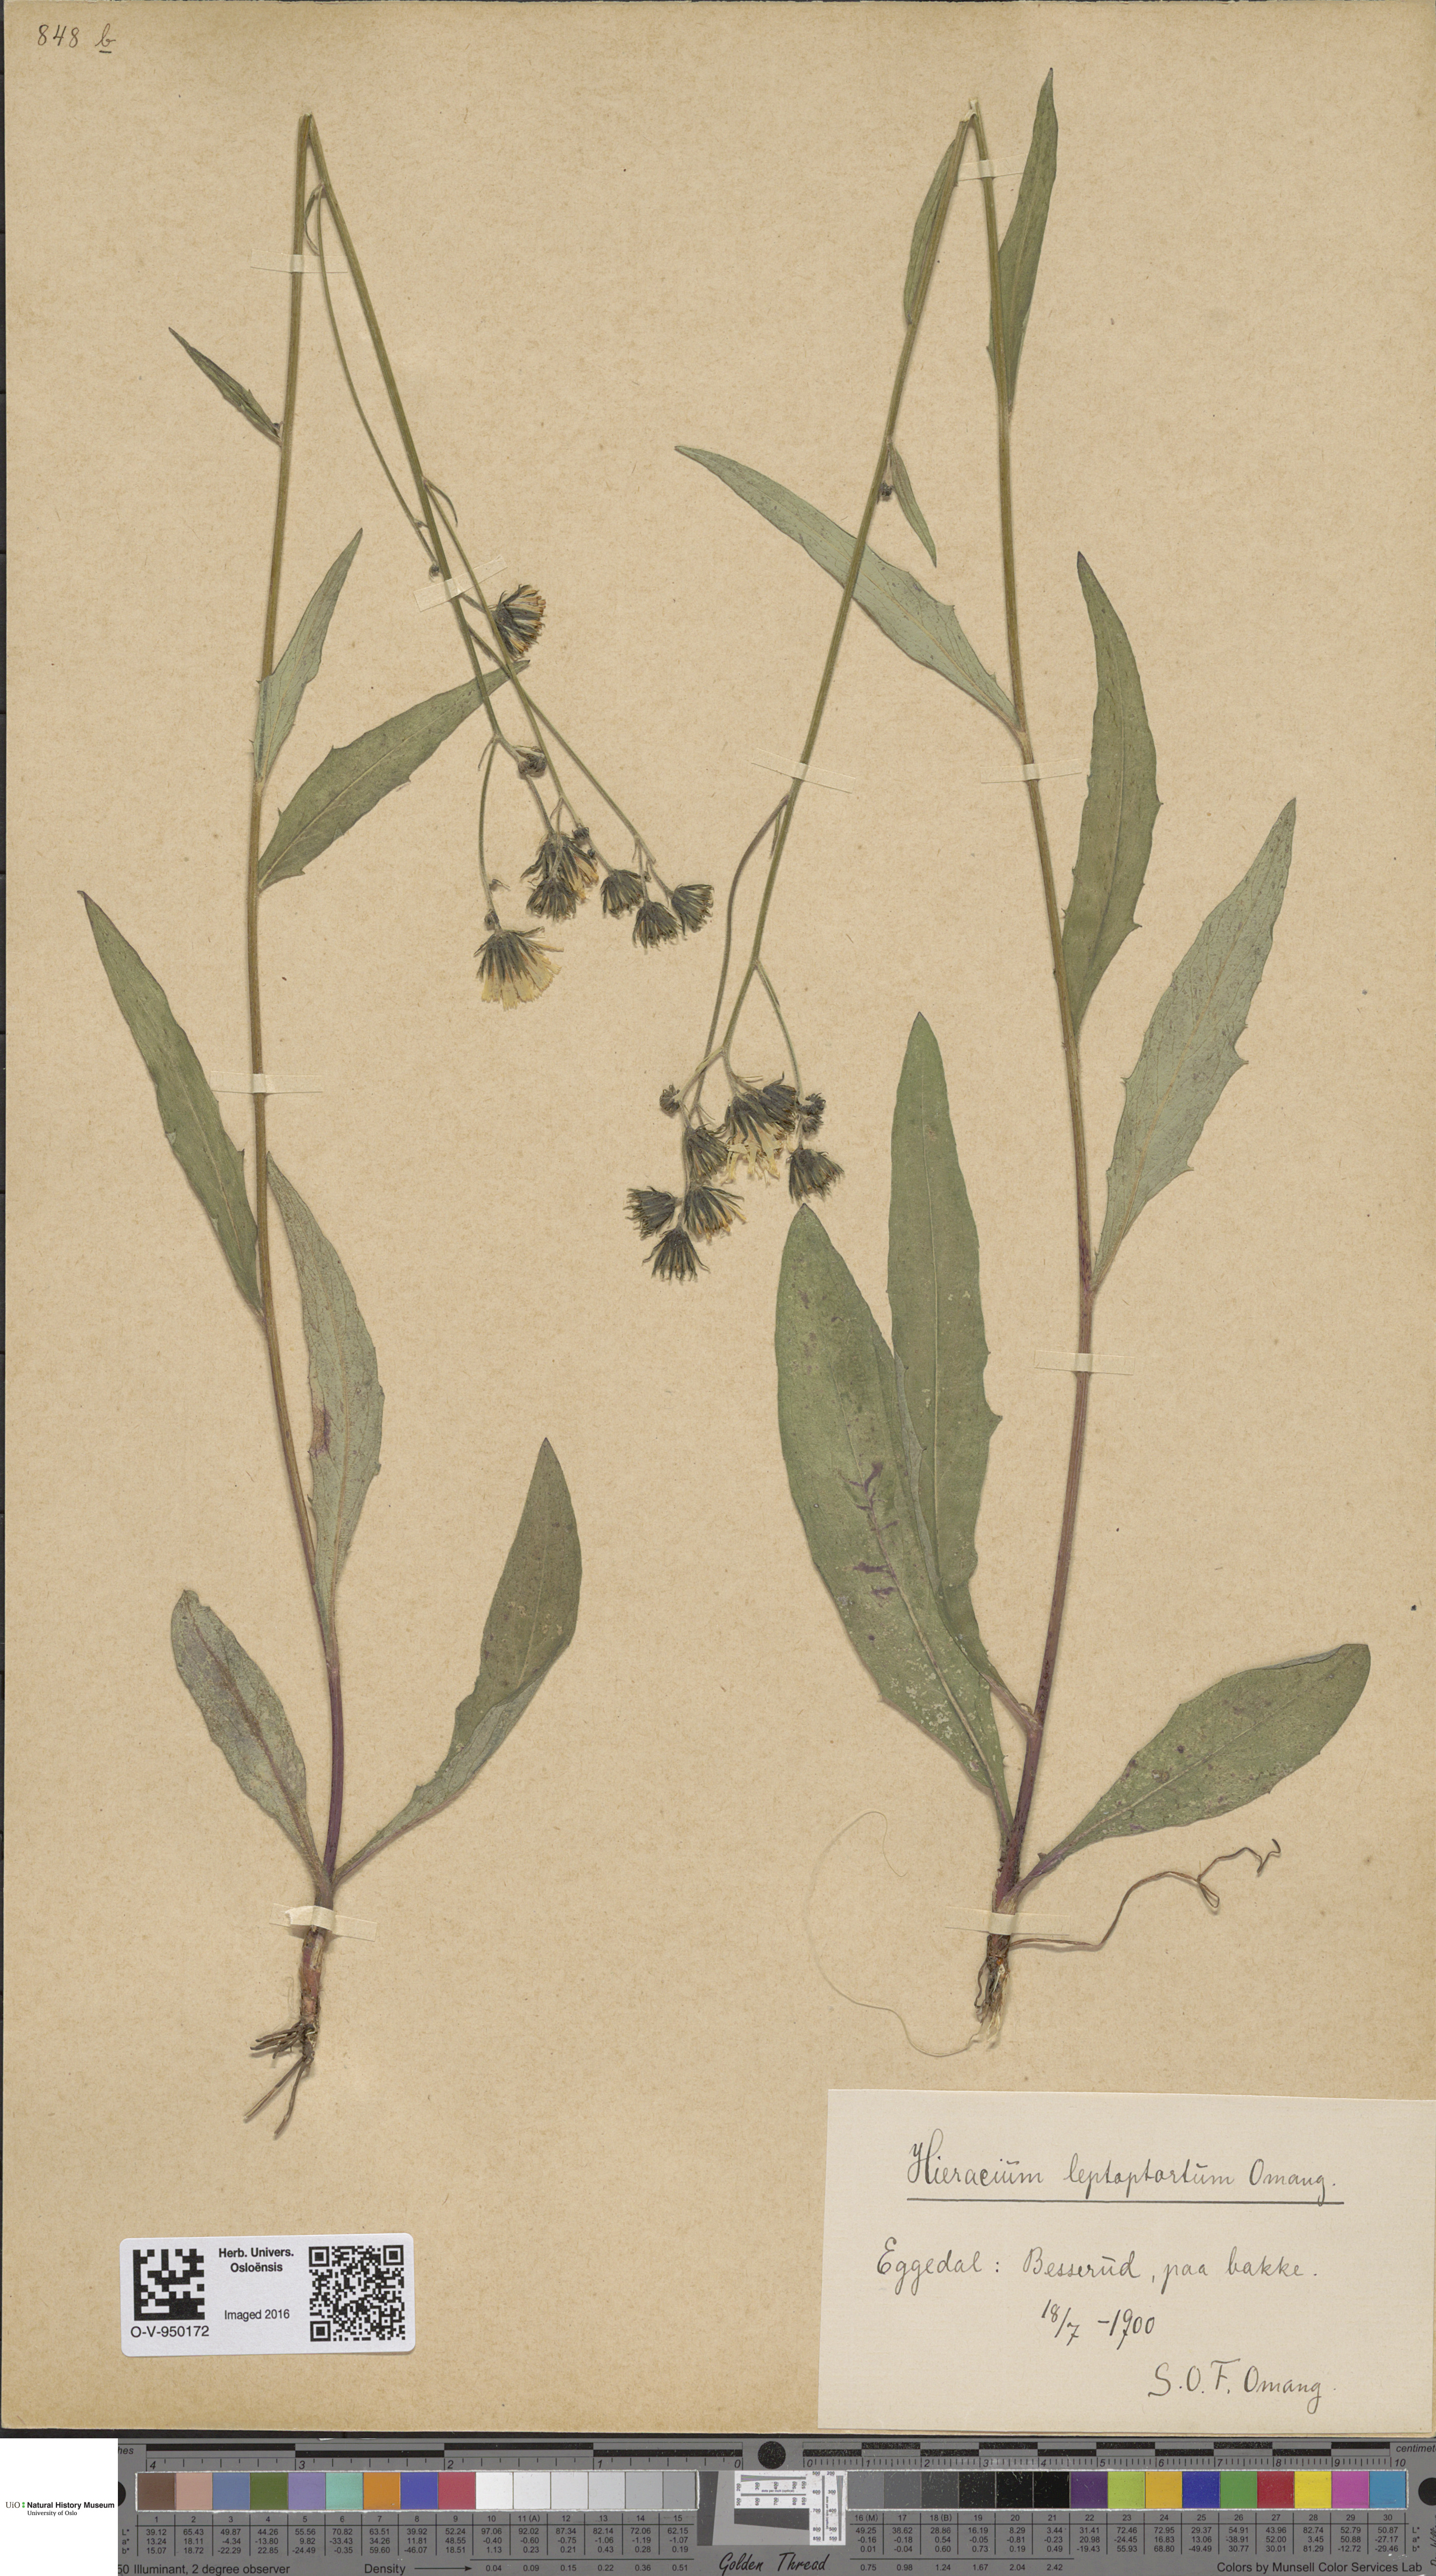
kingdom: Plantae
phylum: Tracheophyta
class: Magnoliopsida
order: Asterales
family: Asteraceae
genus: Hieracium
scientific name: Hieracium
